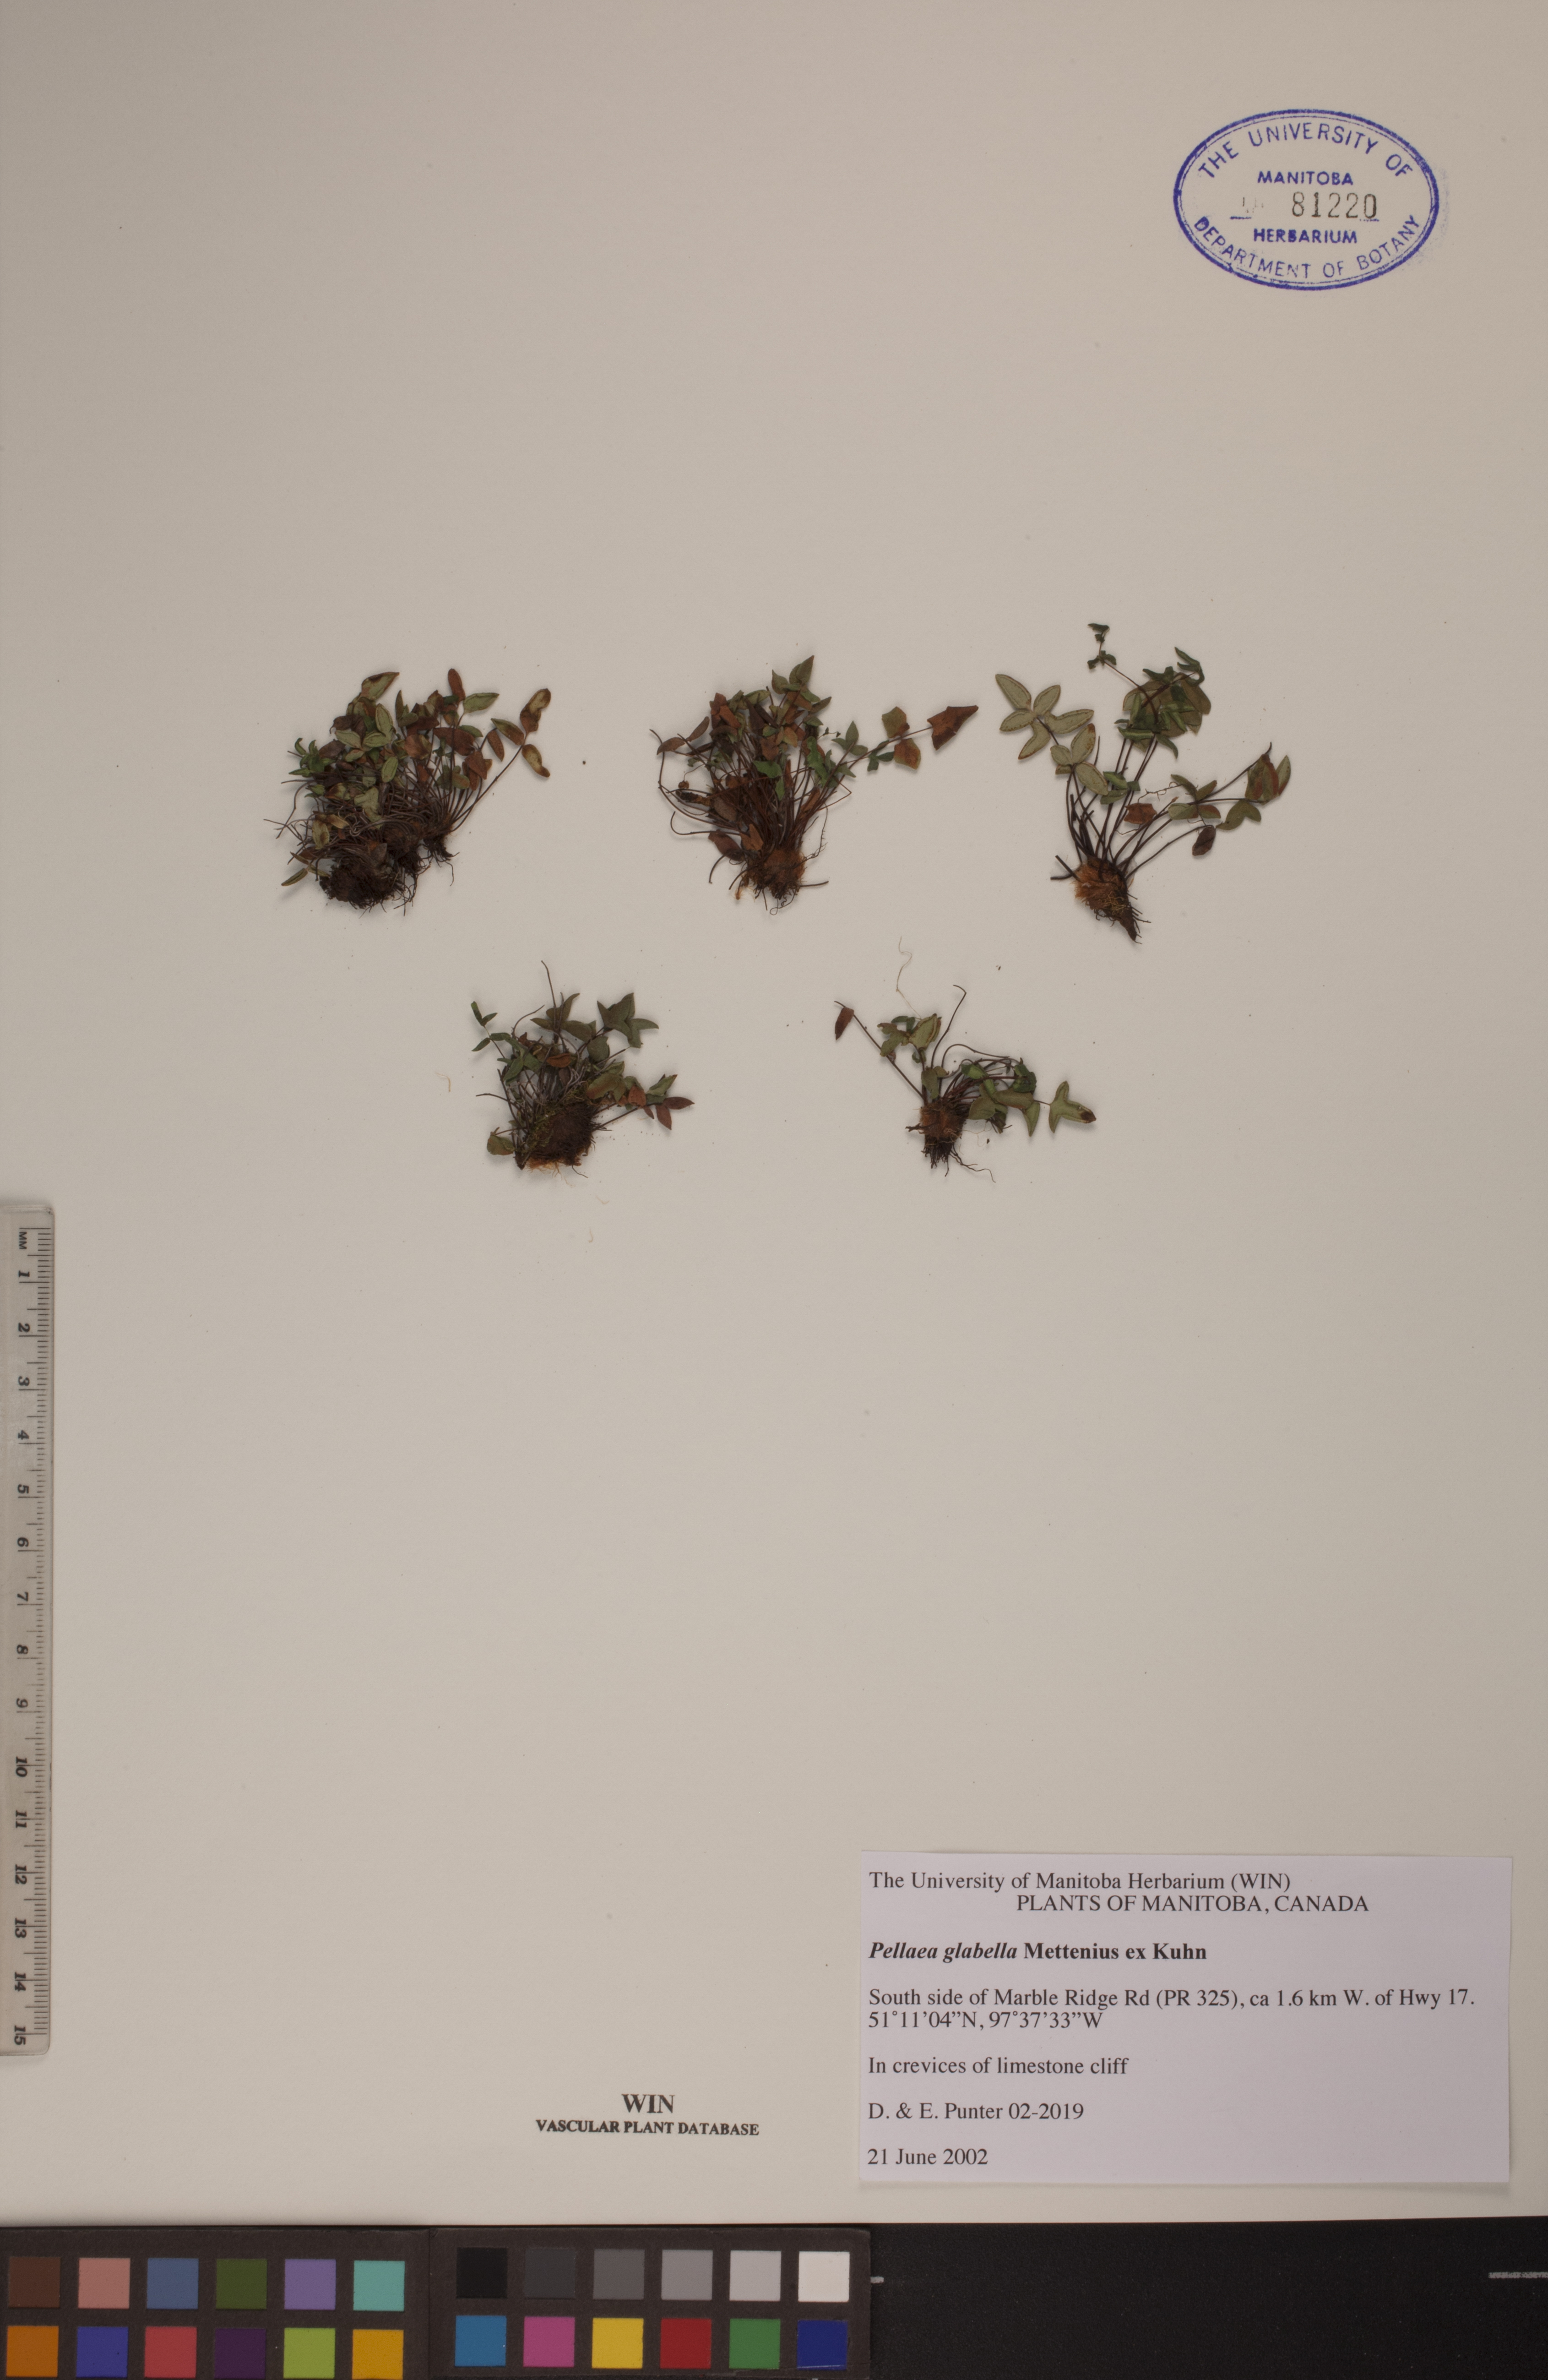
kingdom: Plantae
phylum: Tracheophyta
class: Polypodiopsida
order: Polypodiales
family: Pteridaceae
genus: Pellaea
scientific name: Pellaea glabella
